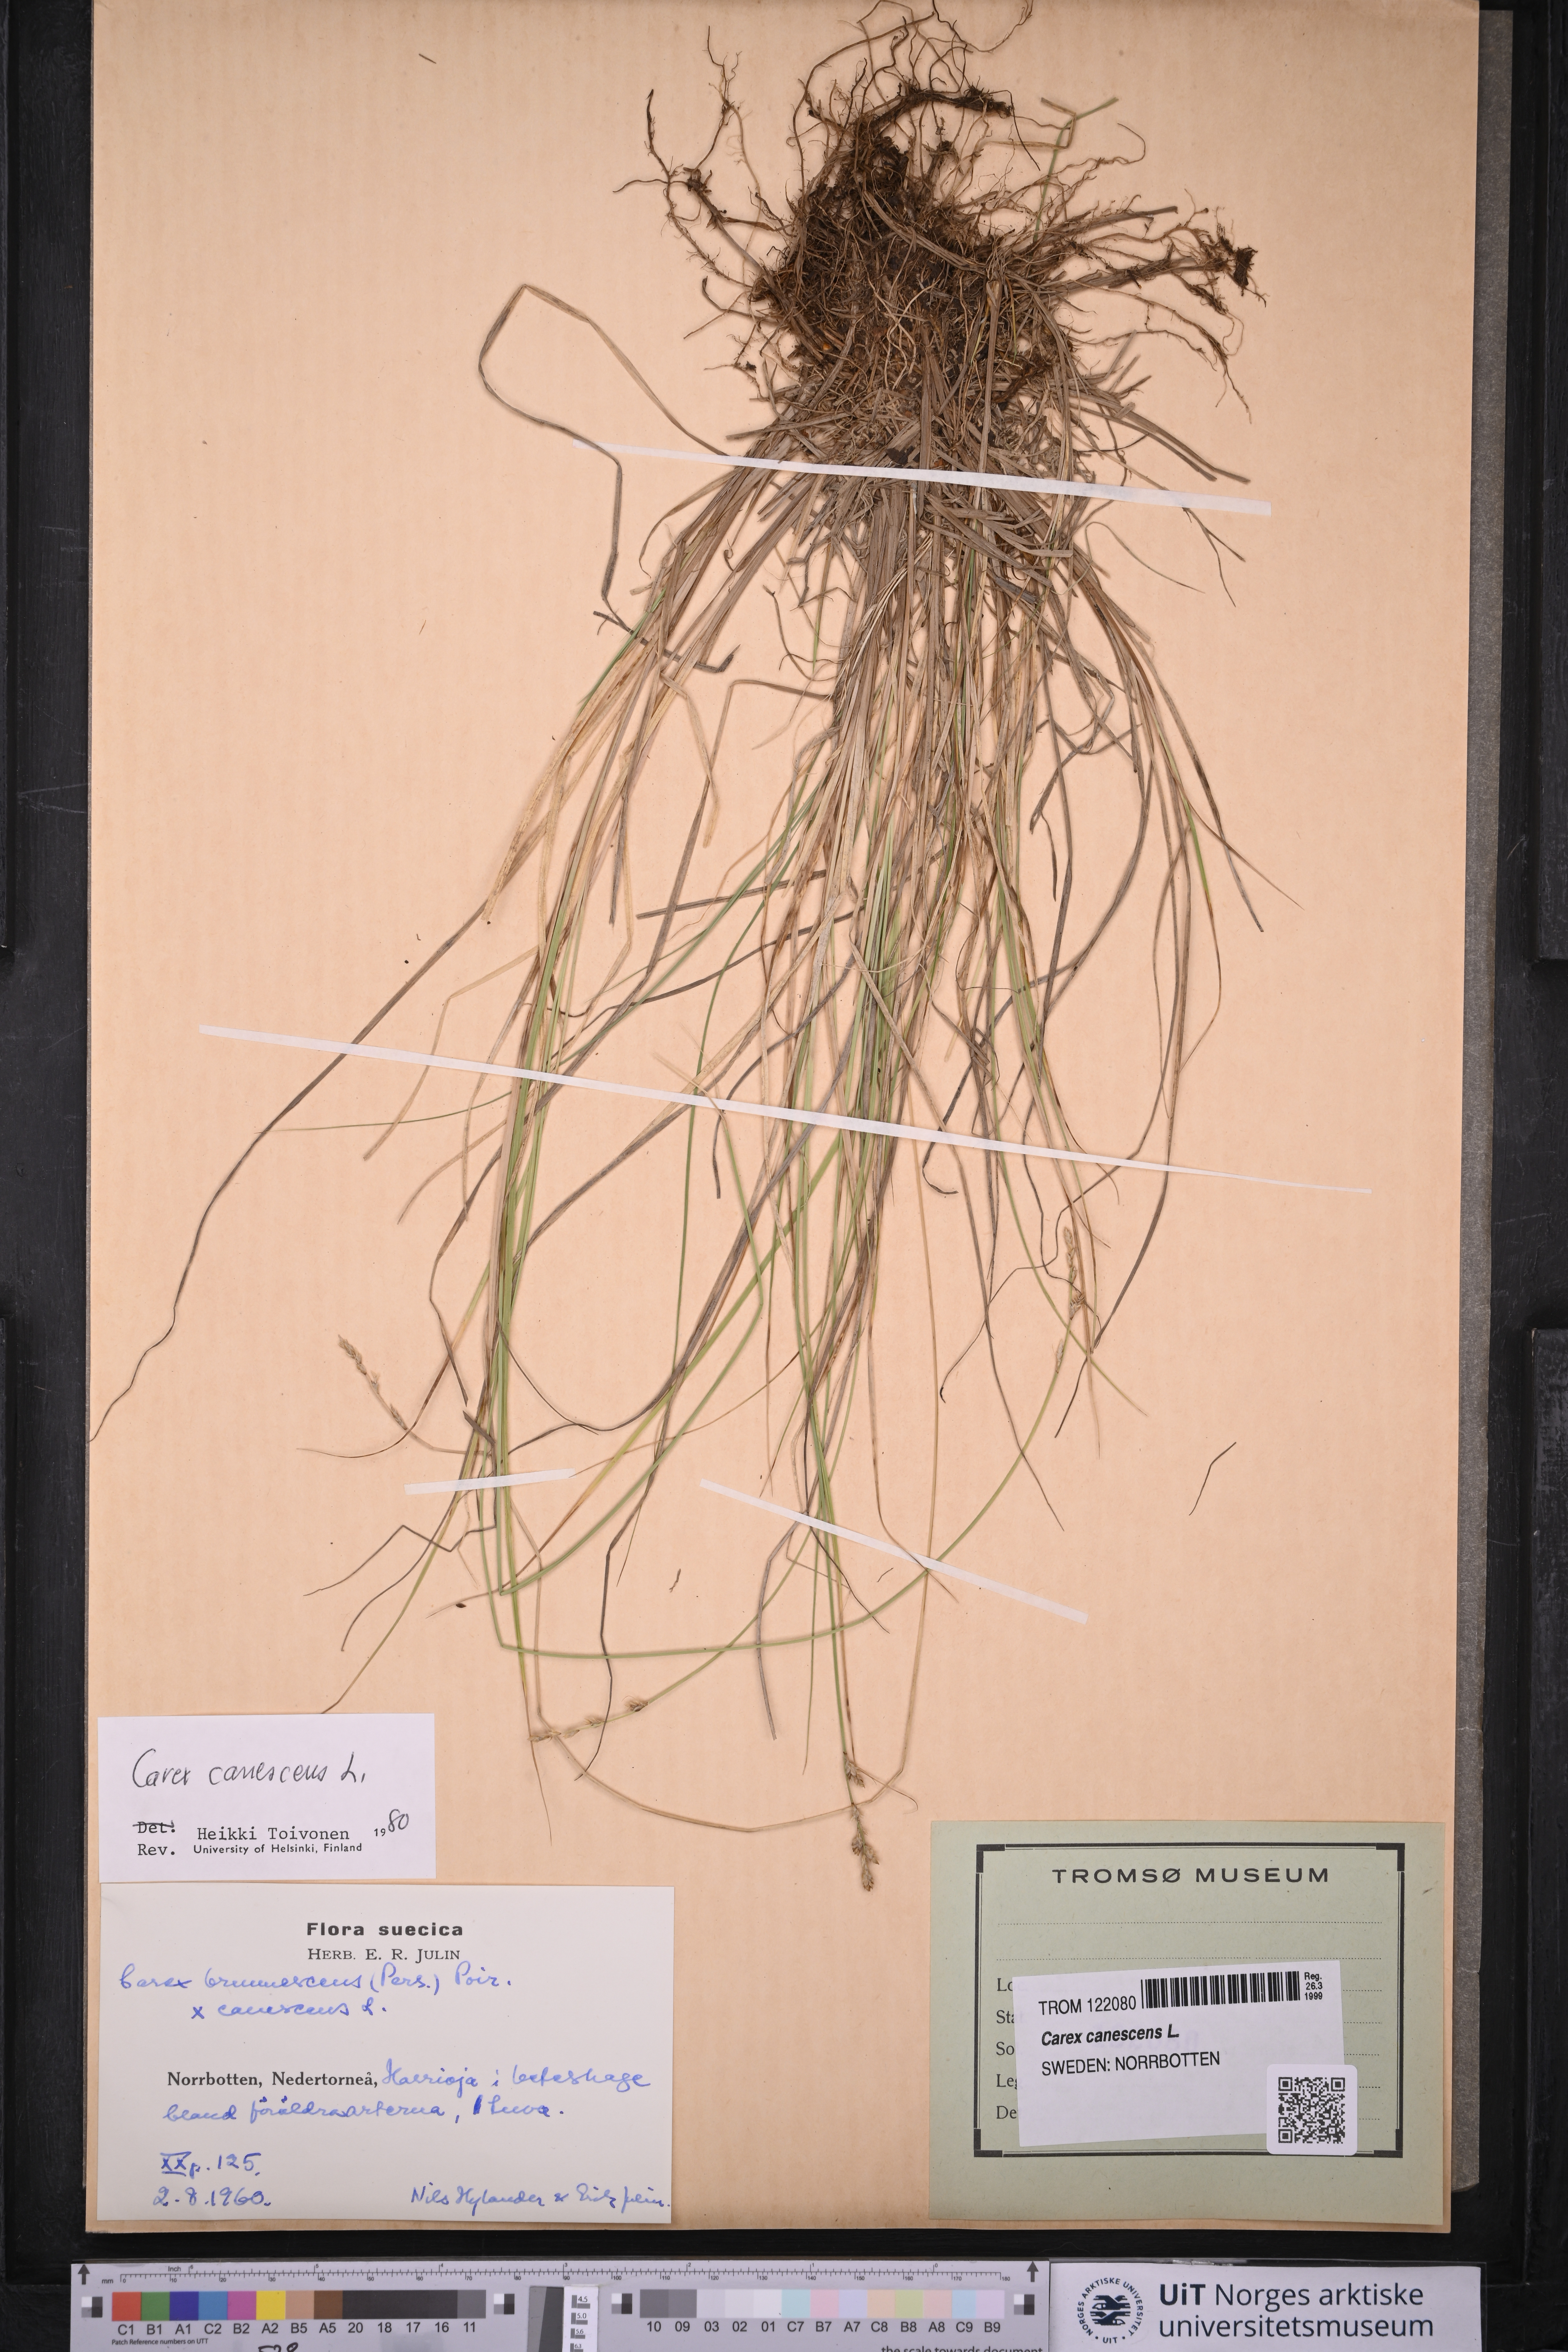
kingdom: Plantae
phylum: Tracheophyta
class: Liliopsida
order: Poales
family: Cyperaceae
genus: Carex
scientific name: Carex canescens
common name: White sedge
